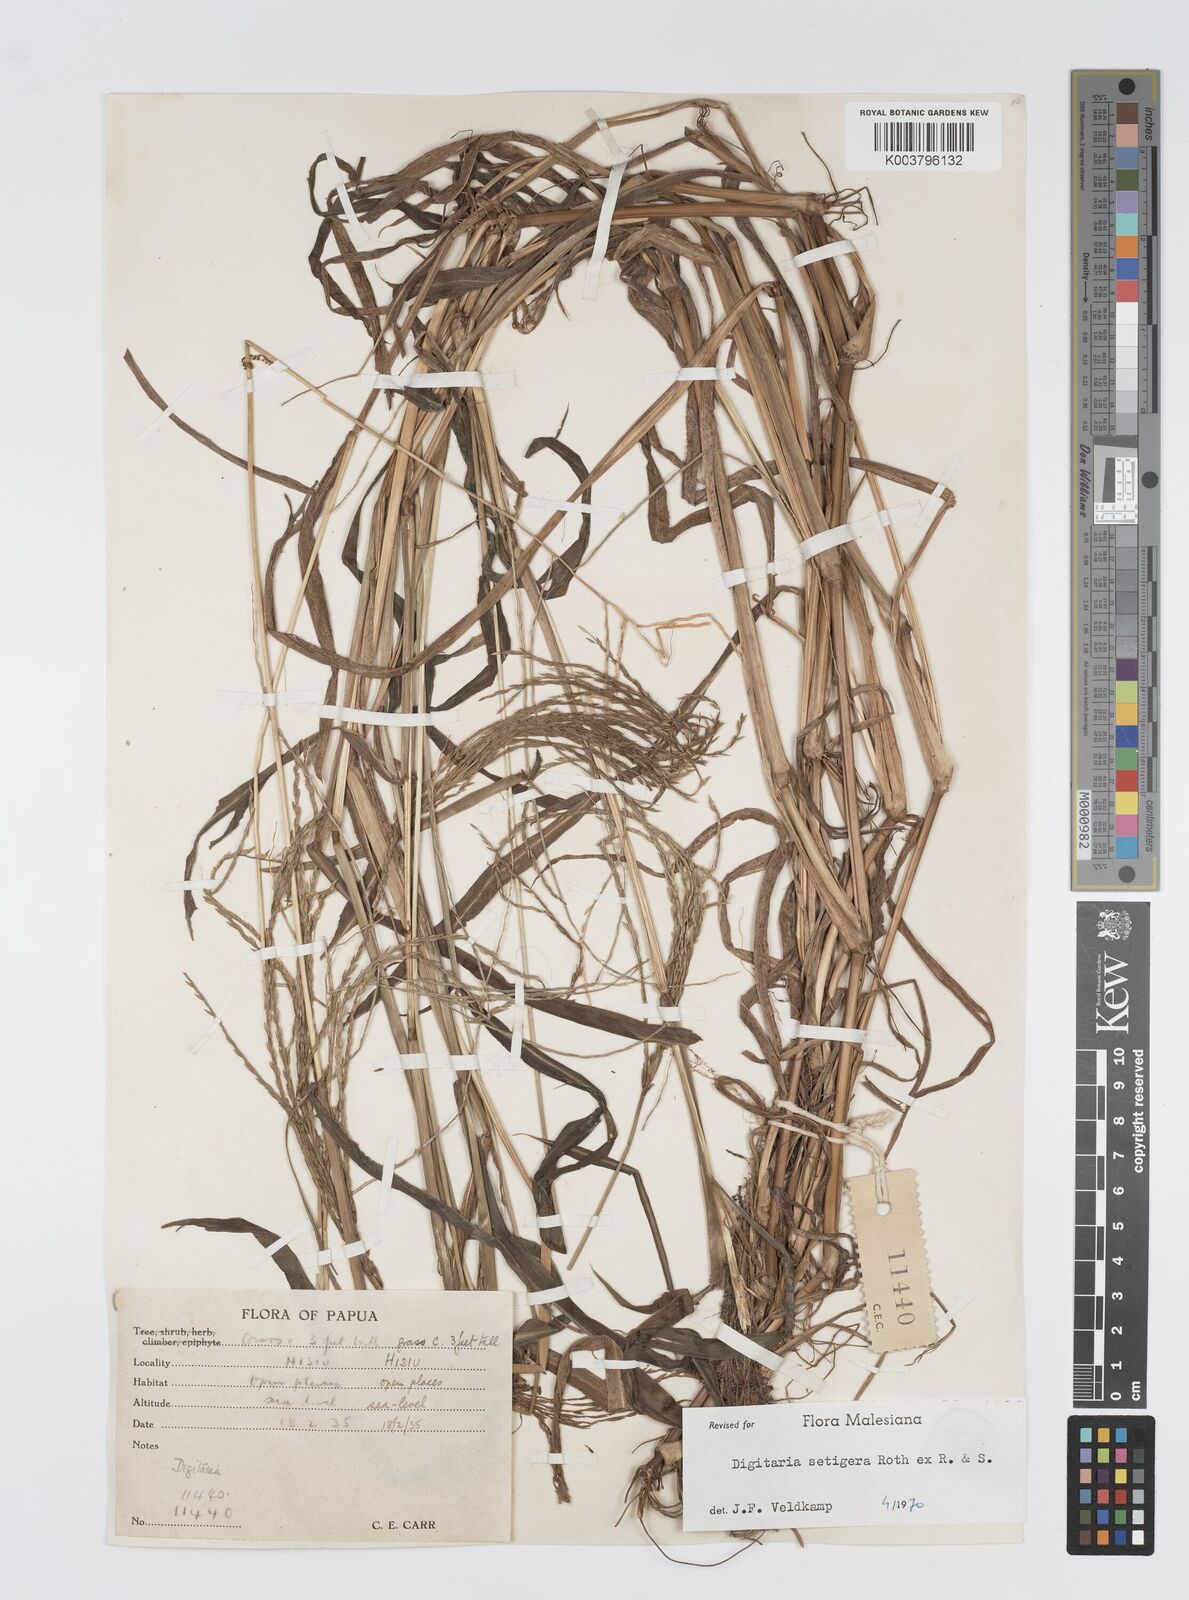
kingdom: Plantae
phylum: Tracheophyta
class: Liliopsida
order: Poales
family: Poaceae
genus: Digitaria
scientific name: Digitaria setigera
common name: East indian crabgrass
